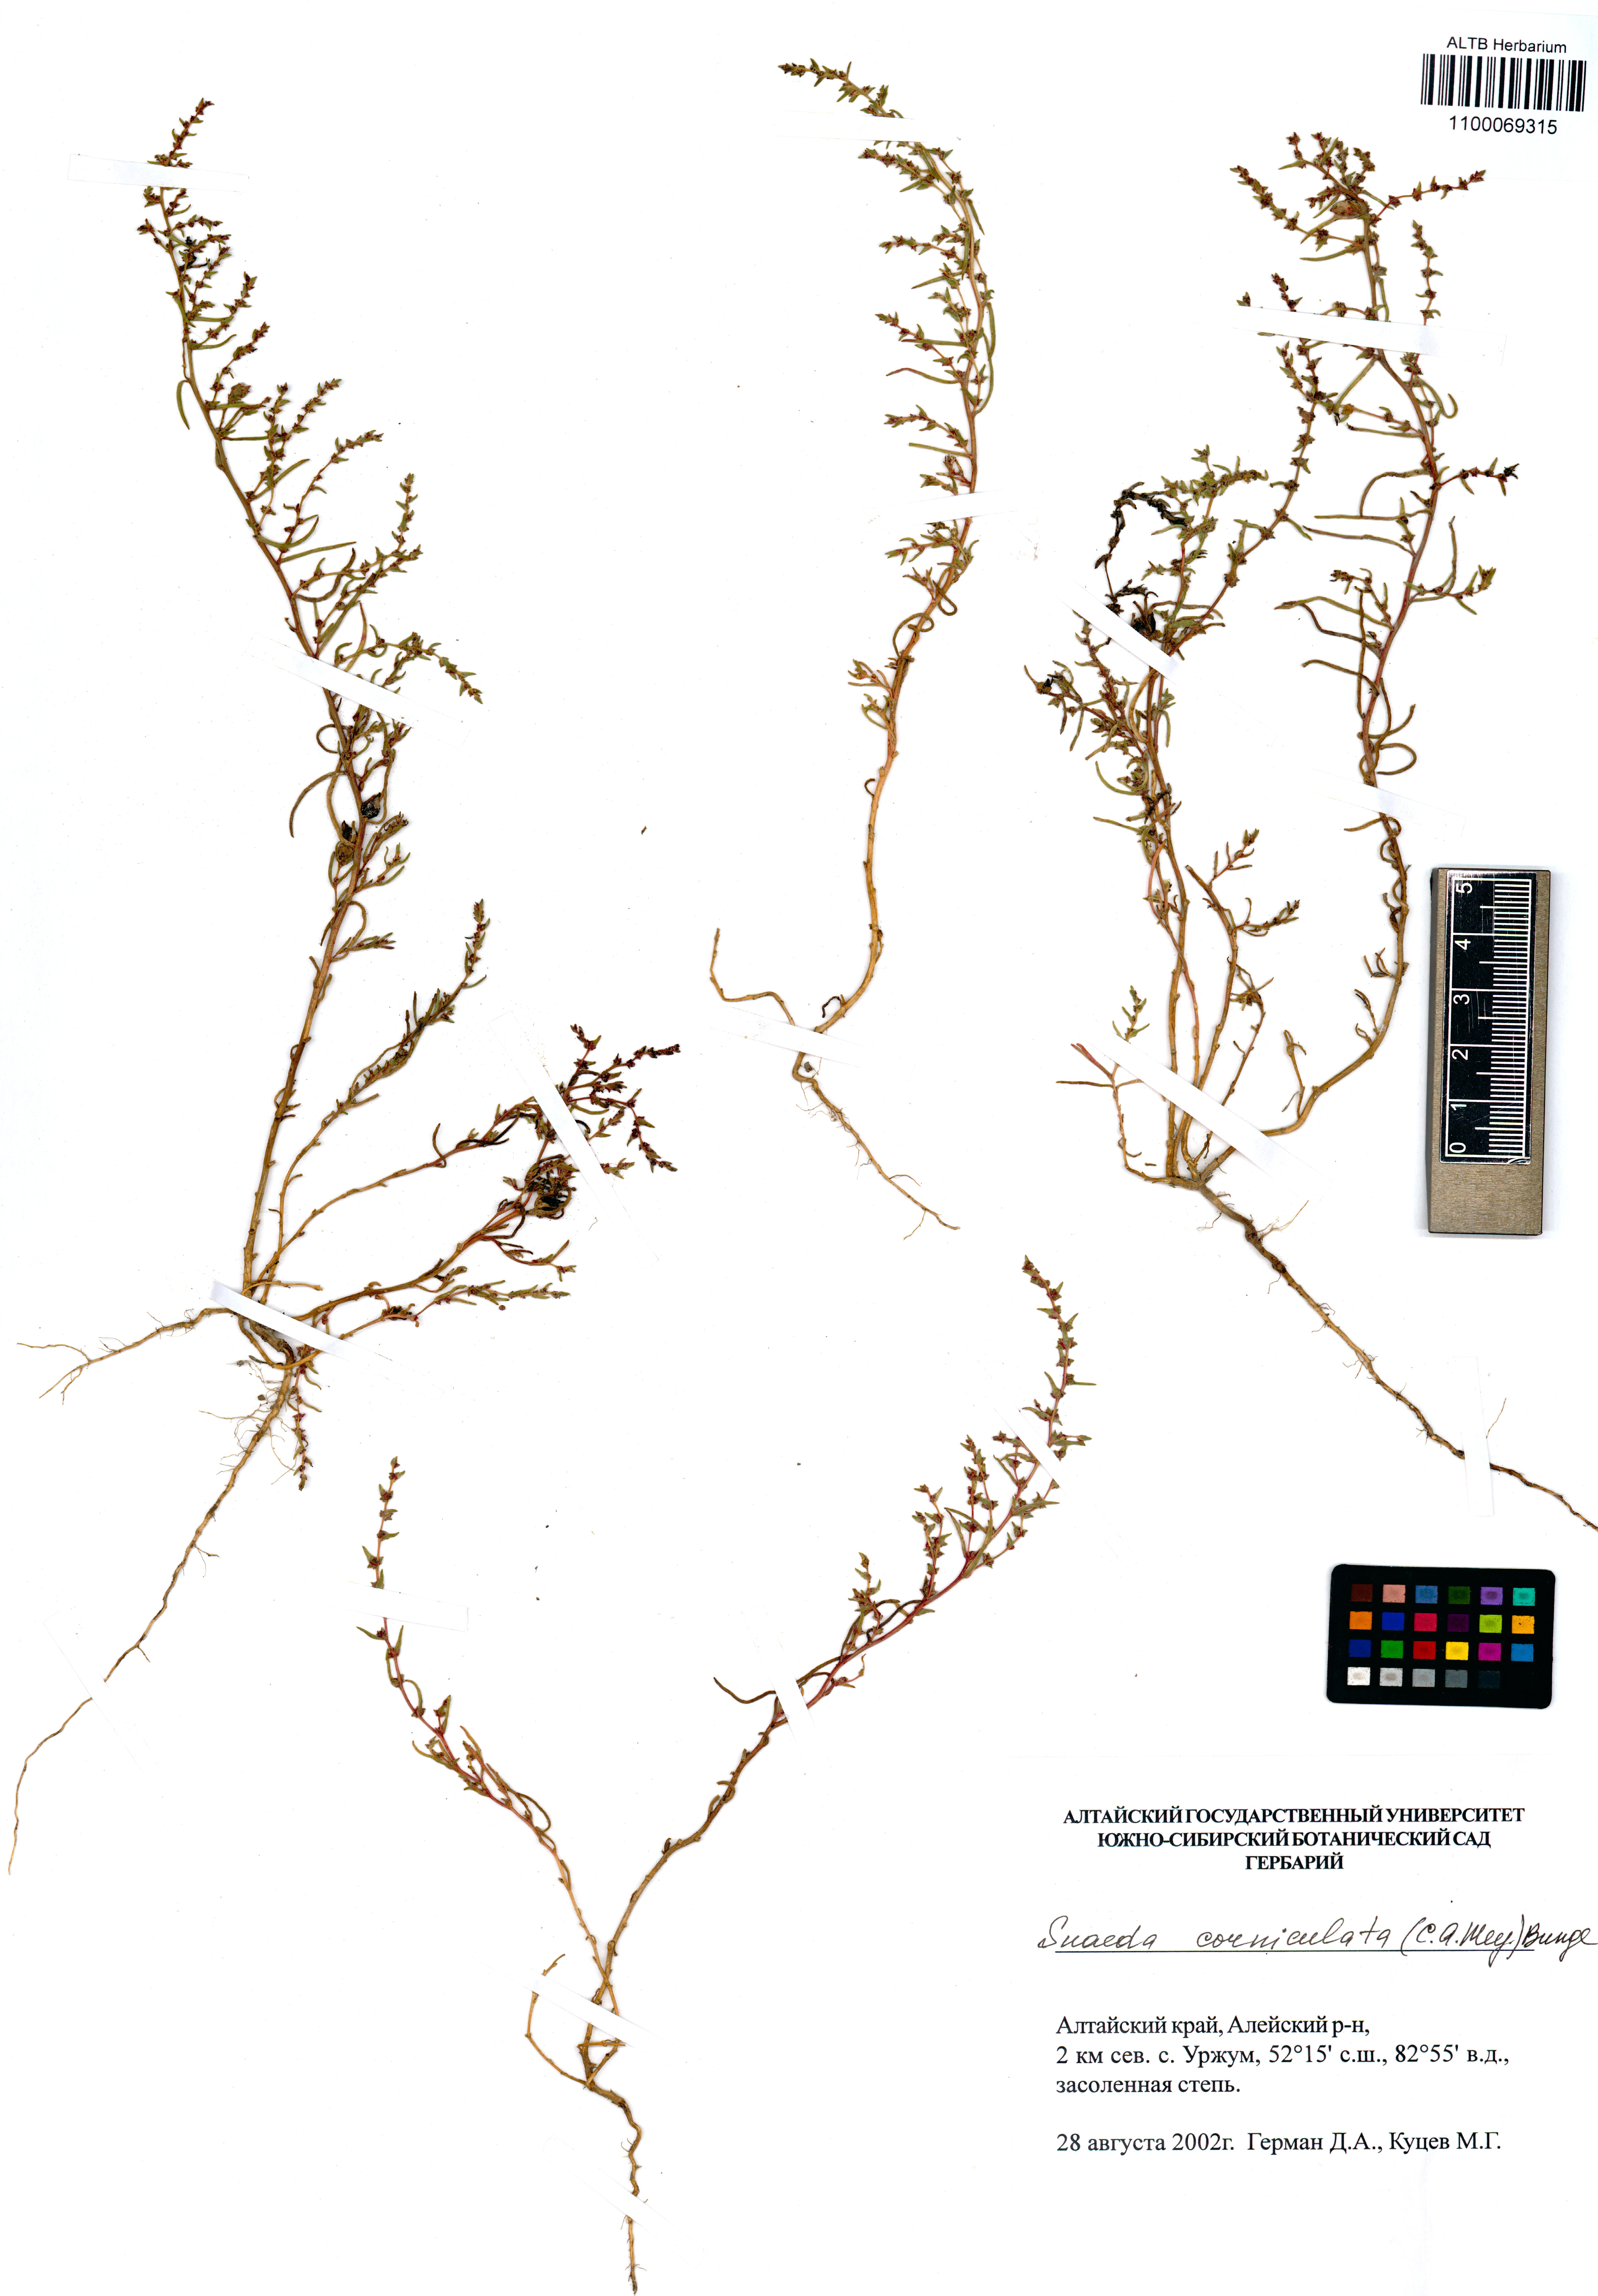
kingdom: Plantae
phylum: Tracheophyta
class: Magnoliopsida
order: Caryophyllales
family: Amaranthaceae
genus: Suaeda
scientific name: Suaeda corniculata
